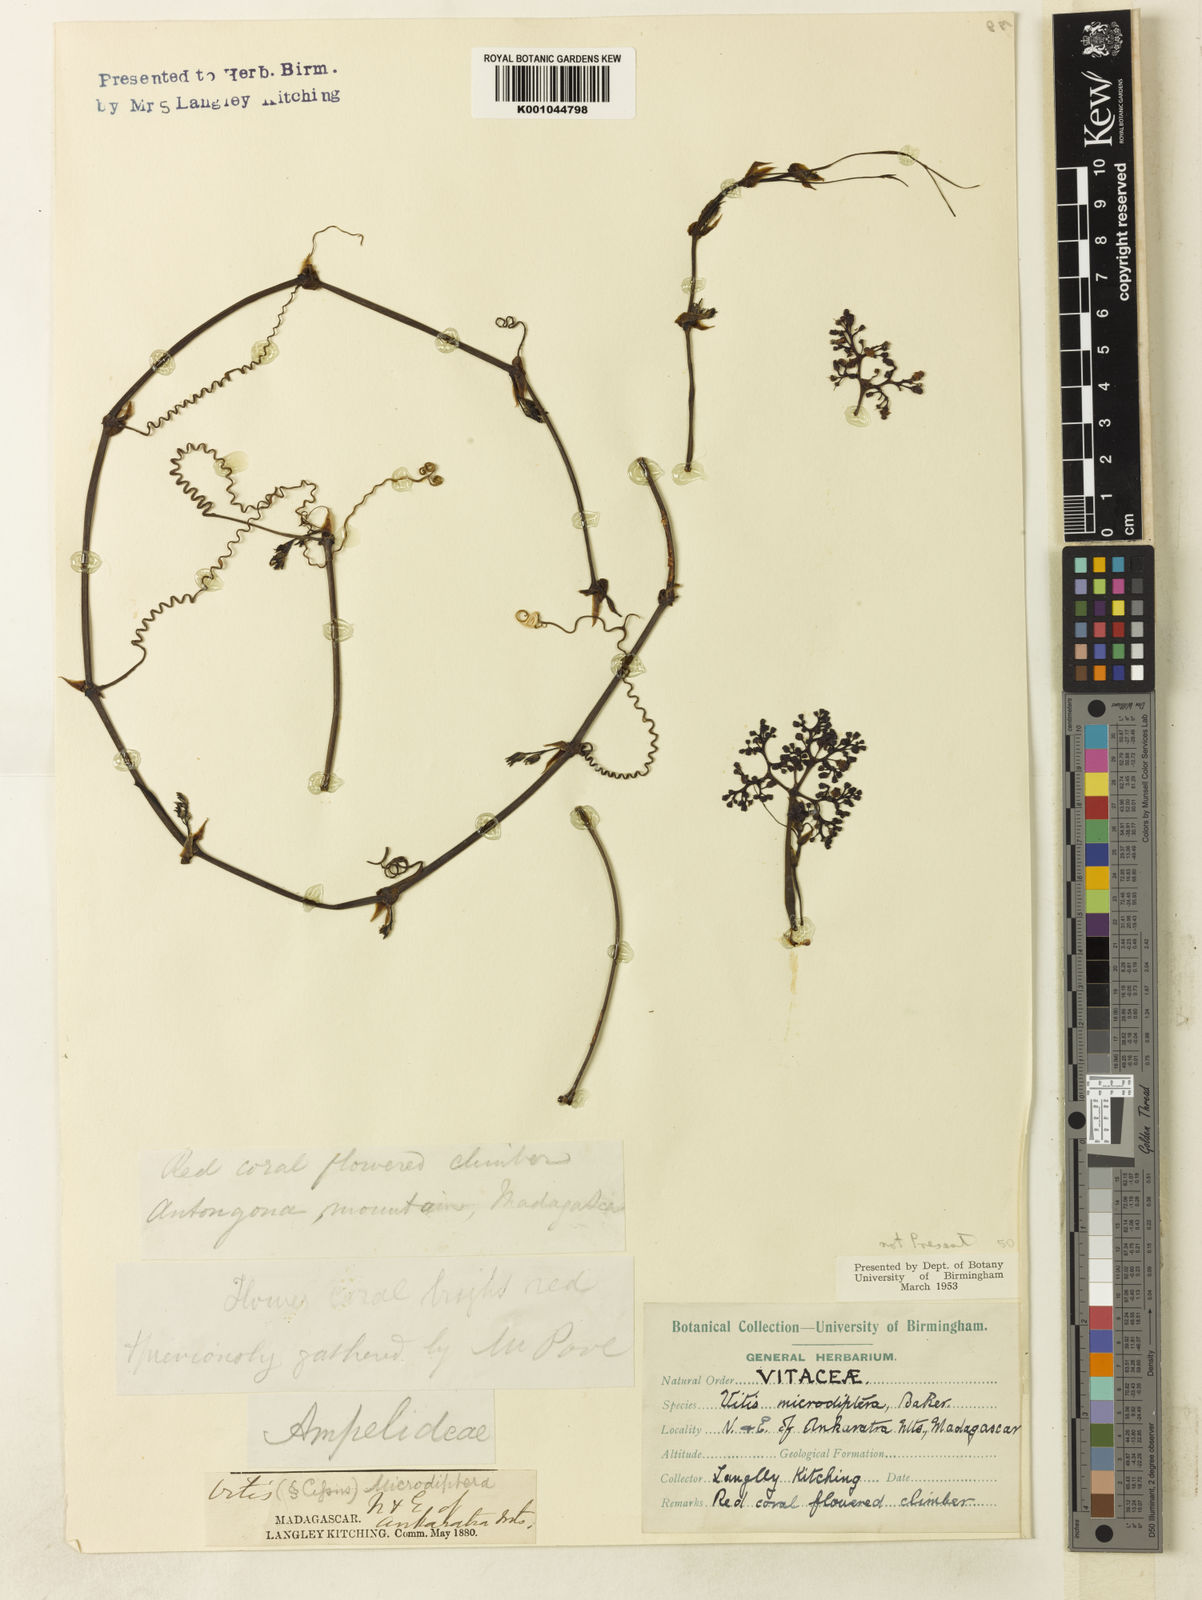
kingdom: Plantae
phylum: Tracheophyta
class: Magnoliopsida
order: Vitales
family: Vitaceae
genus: Cyphostemma
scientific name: Cyphostemma microdipterum
